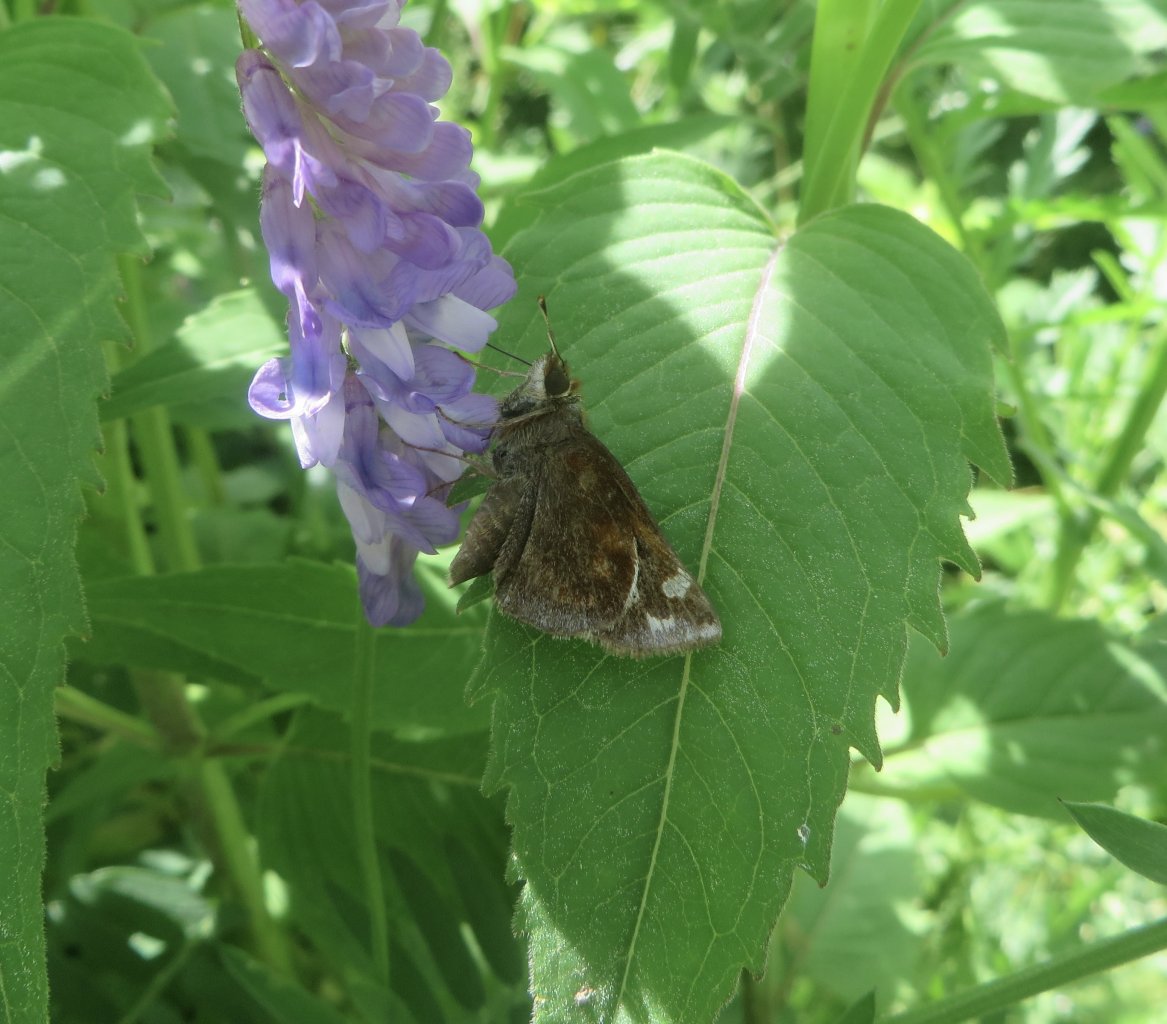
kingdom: Animalia
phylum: Arthropoda
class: Insecta
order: Lepidoptera
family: Hesperiidae
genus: Lon
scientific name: Lon zabulon
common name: Zabulon Skipper
